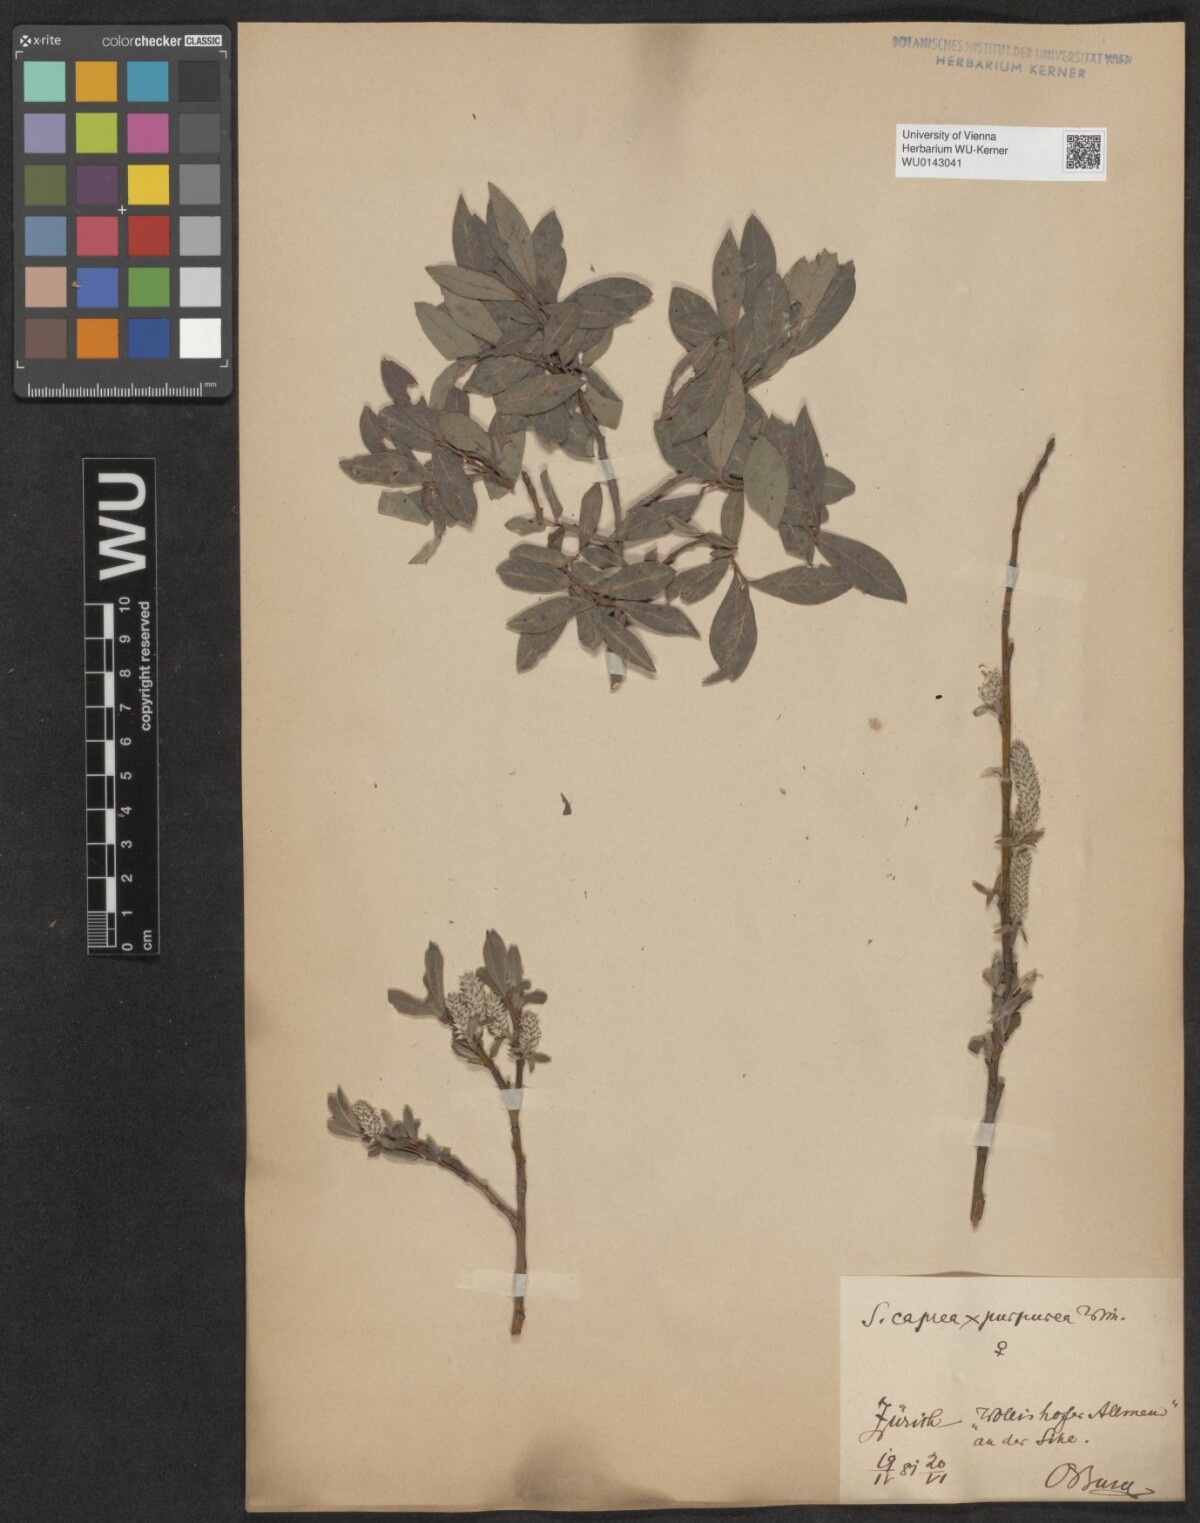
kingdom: Plantae
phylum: Tracheophyta
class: Magnoliopsida
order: Malpighiales
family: Salicaceae
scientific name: Salicaceae
